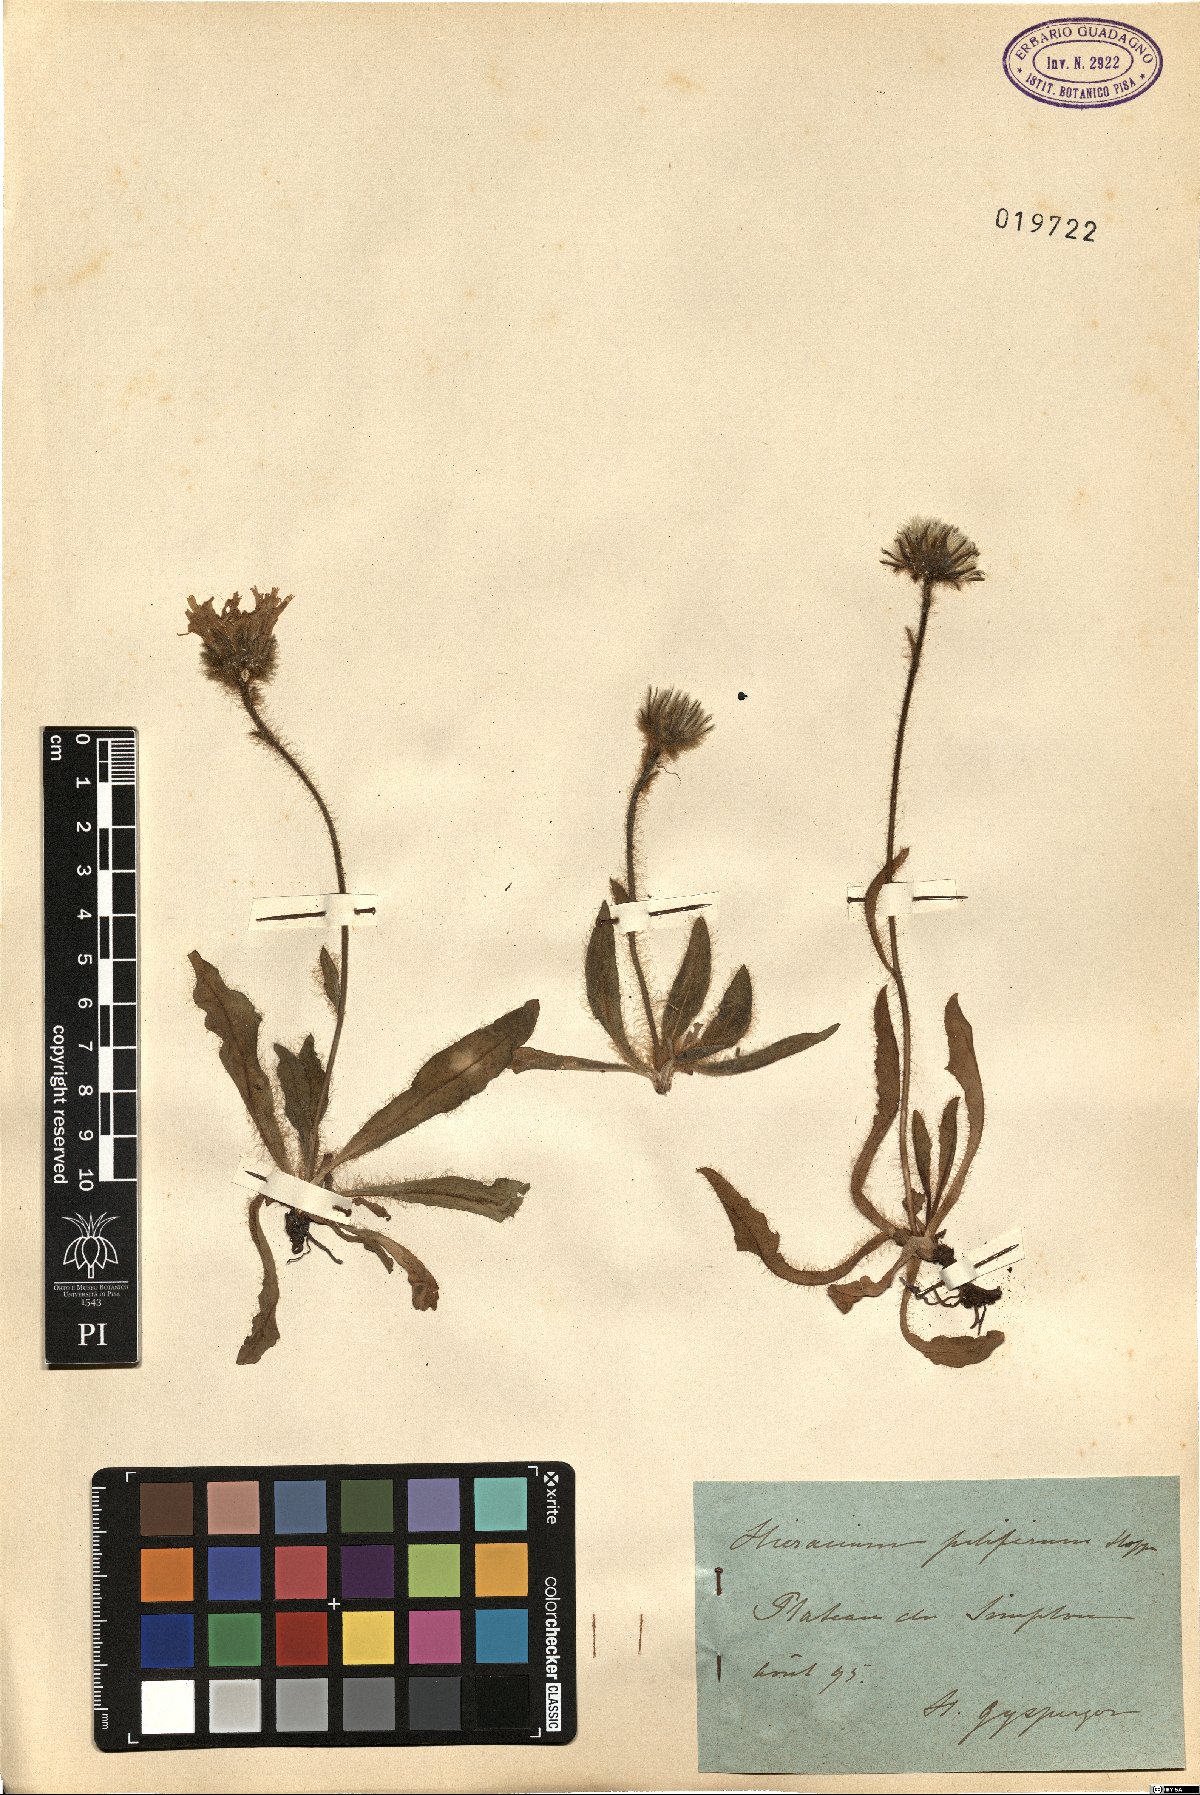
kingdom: Plantae
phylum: Tracheophyta
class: Magnoliopsida
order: Asterales
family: Asteraceae
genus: Hieracium
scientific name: Hieracium piliferum
